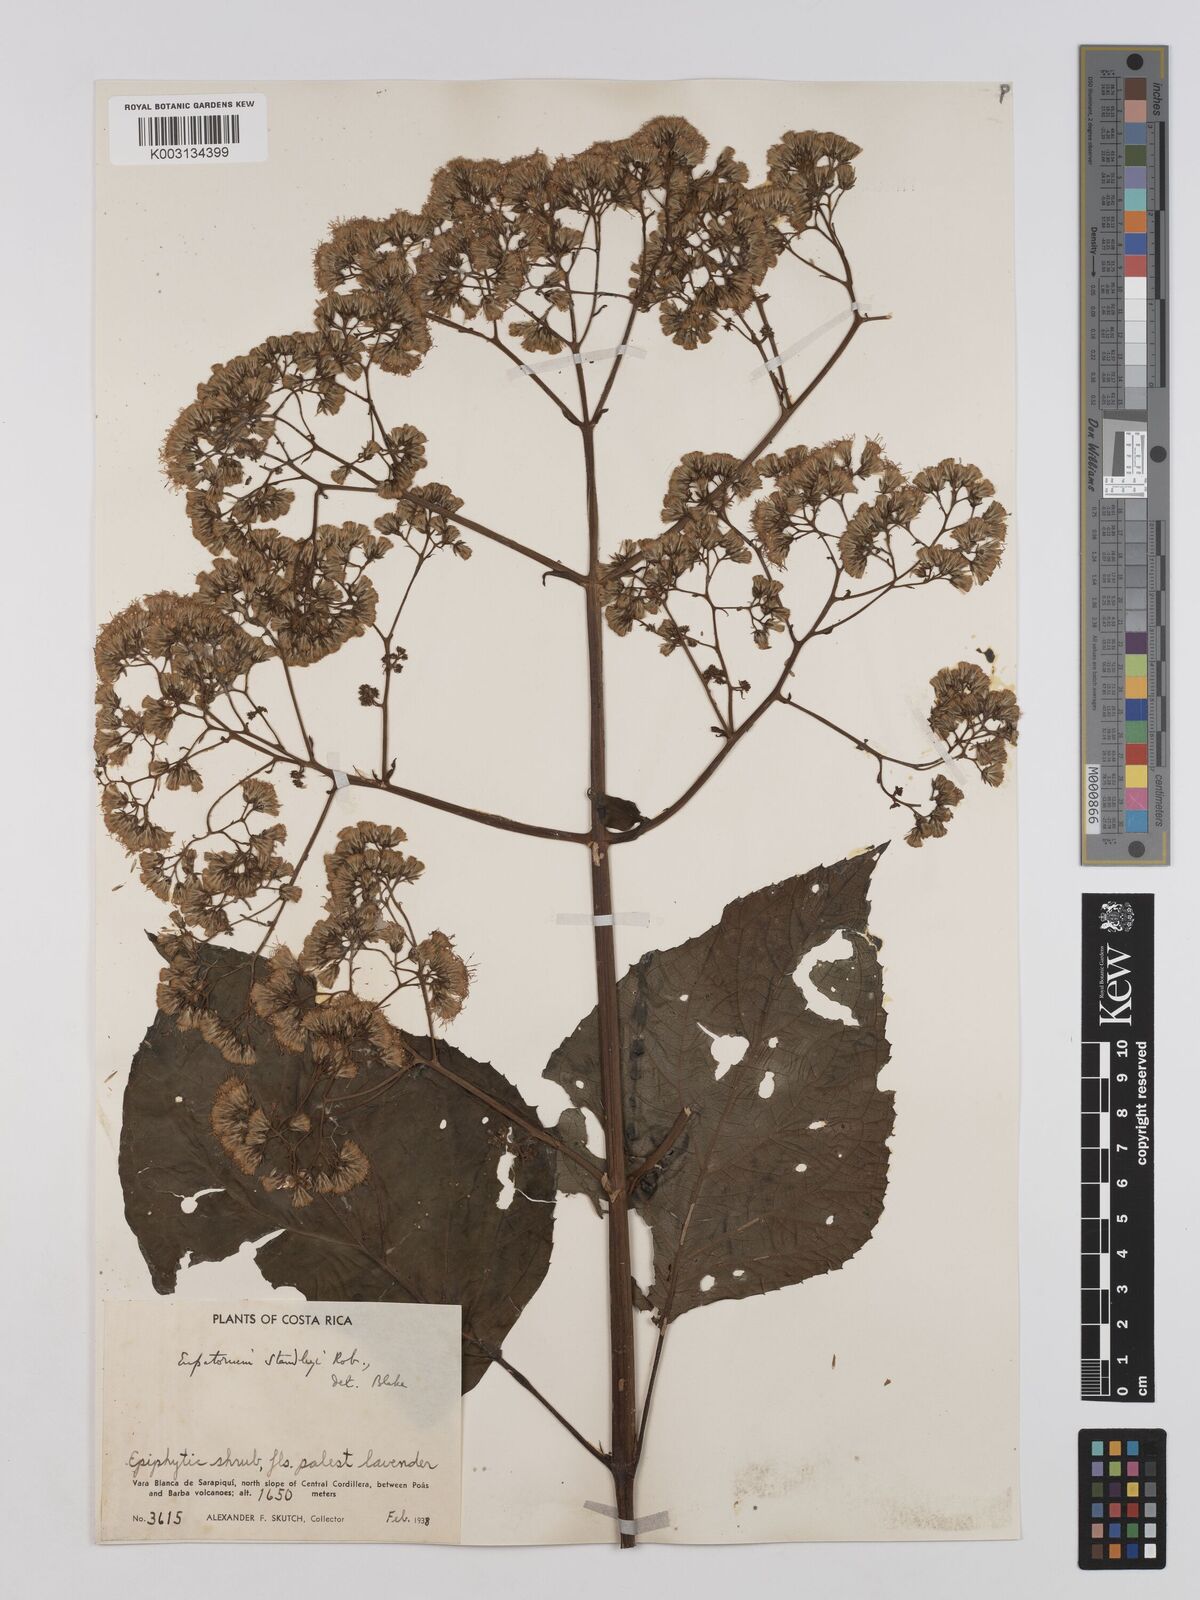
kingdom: Plantae
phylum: Tracheophyta
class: Magnoliopsida
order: Asterales
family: Asteraceae
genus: Neomirandea
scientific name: Neomirandea standleyi
